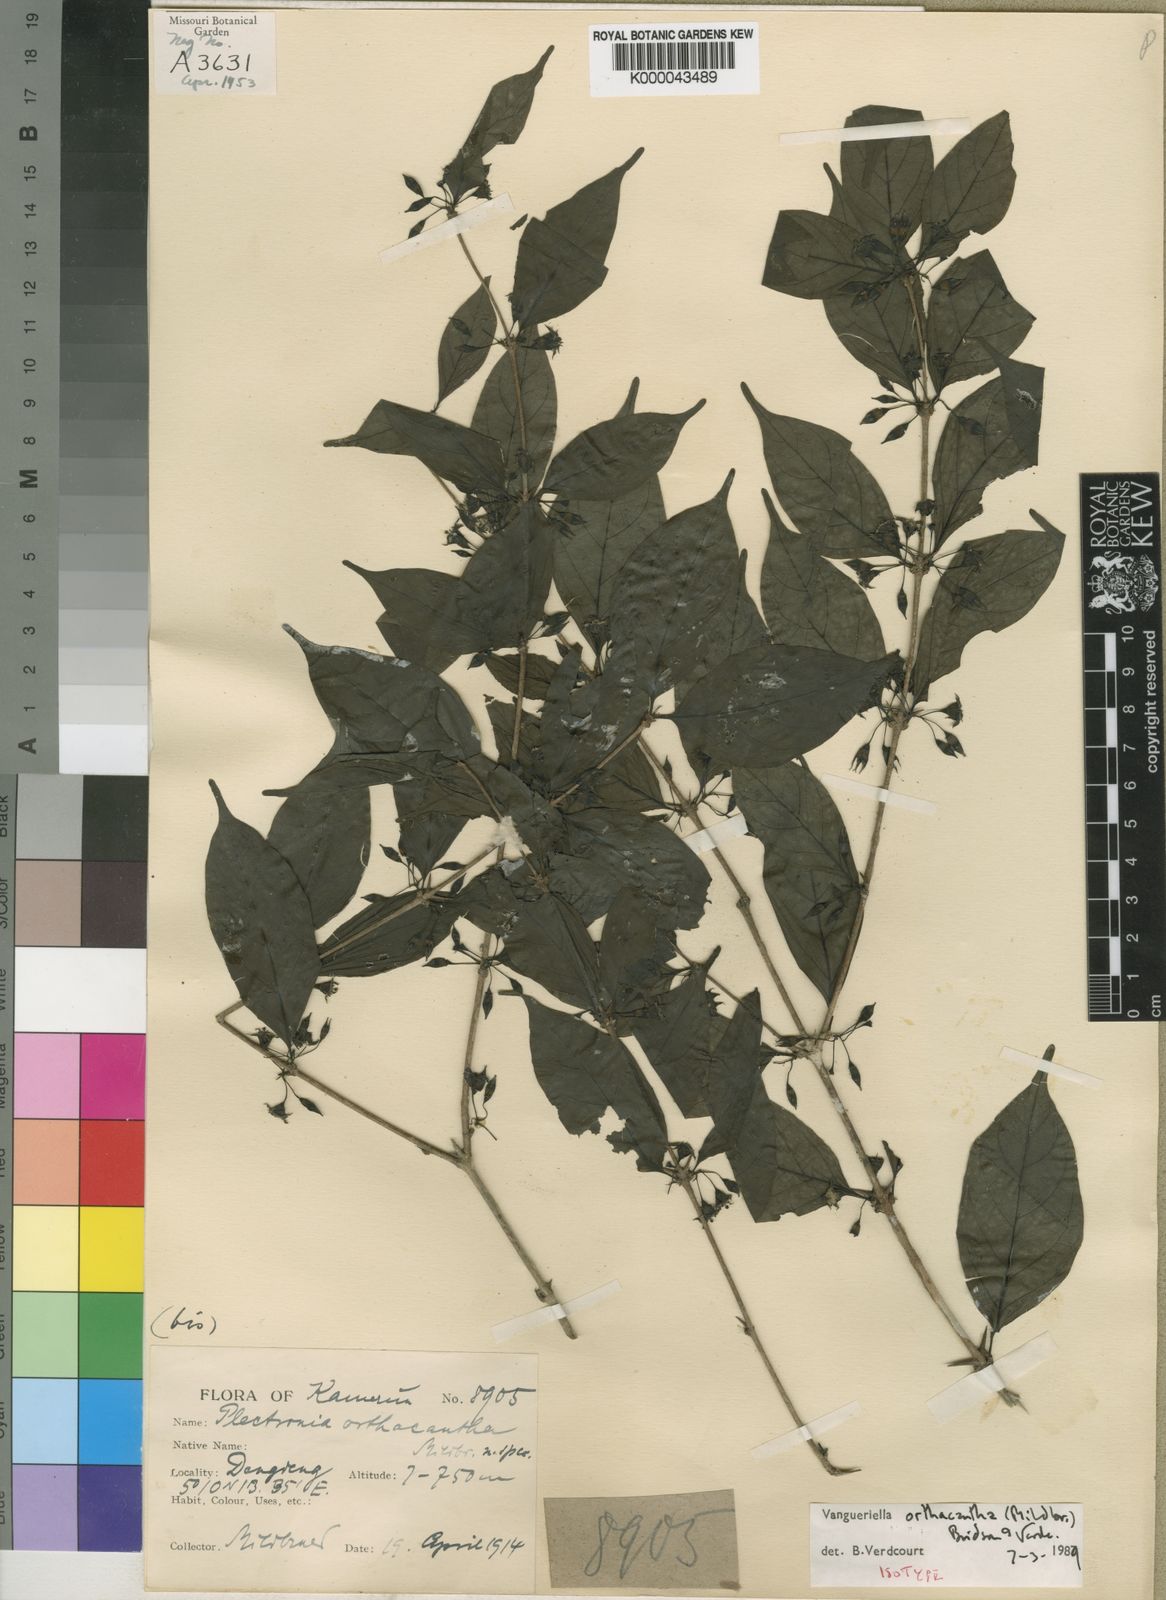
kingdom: Plantae
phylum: Tracheophyta
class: Magnoliopsida
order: Gentianales
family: Rubiaceae
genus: Vangueriella
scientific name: Vangueriella orthacantha
